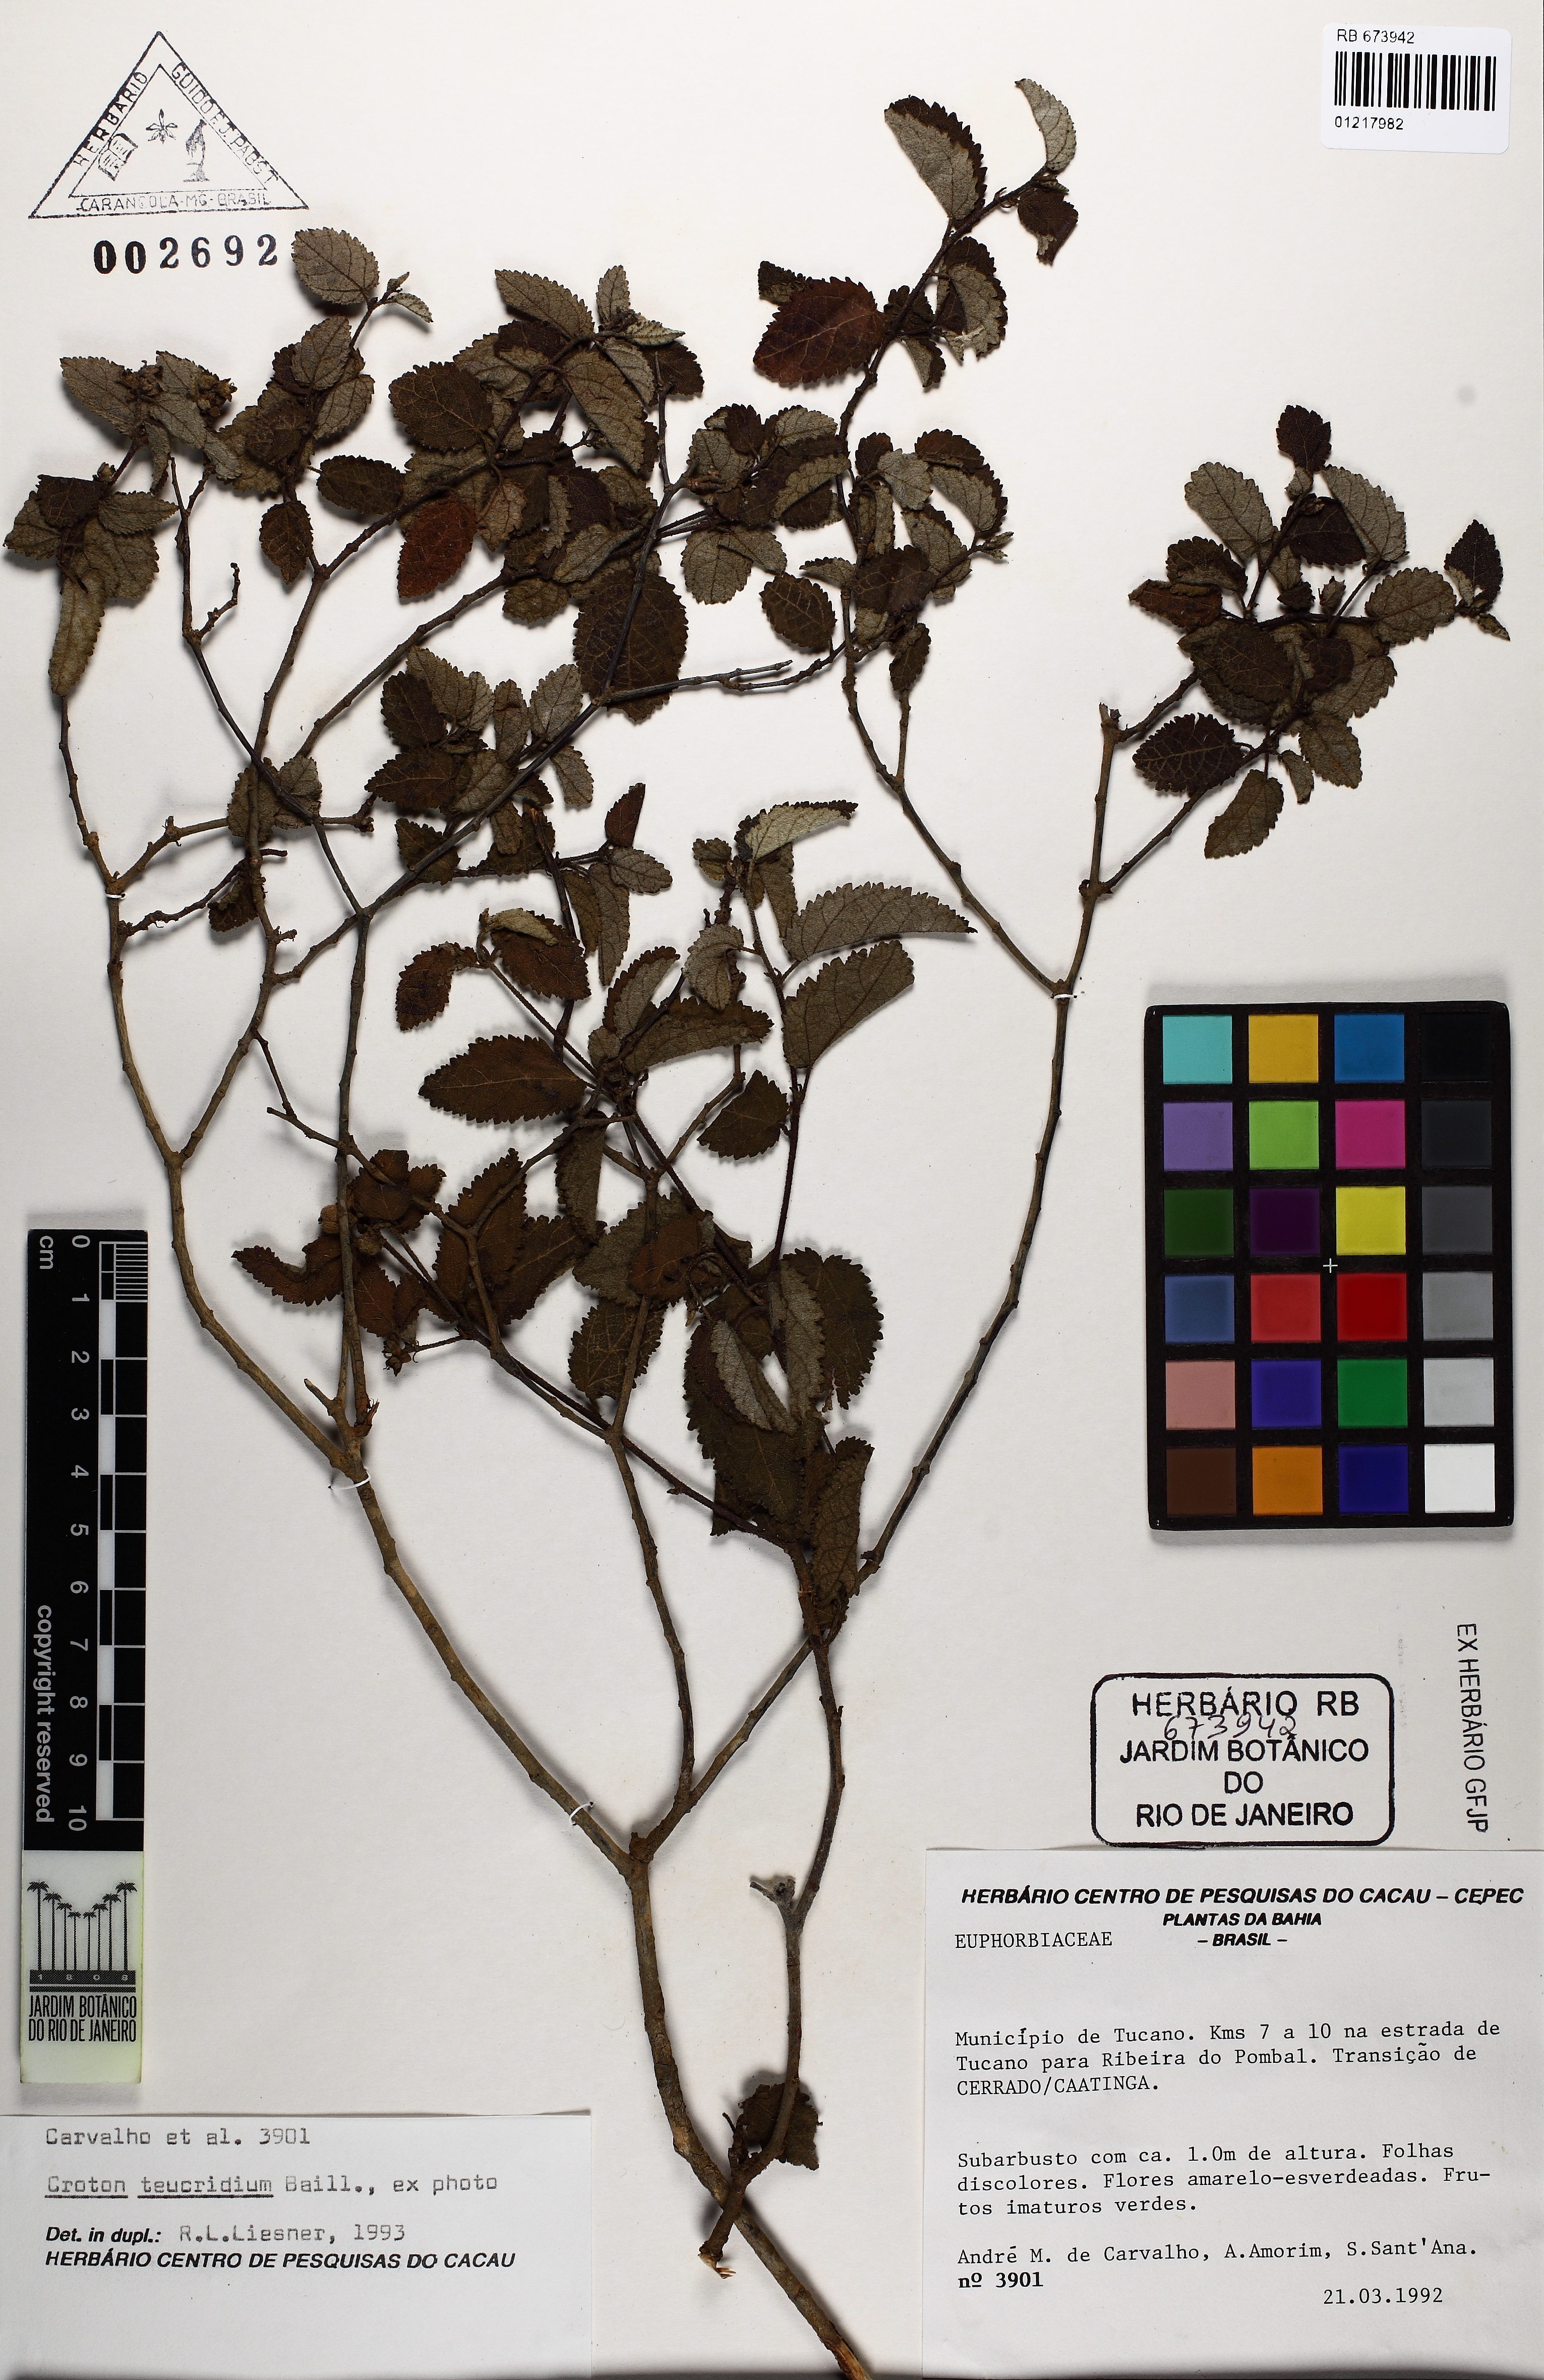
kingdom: Plantae
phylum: Tracheophyta
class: Magnoliopsida
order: Malpighiales
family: Euphorbiaceae
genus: Croton
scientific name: Croton lundianus
